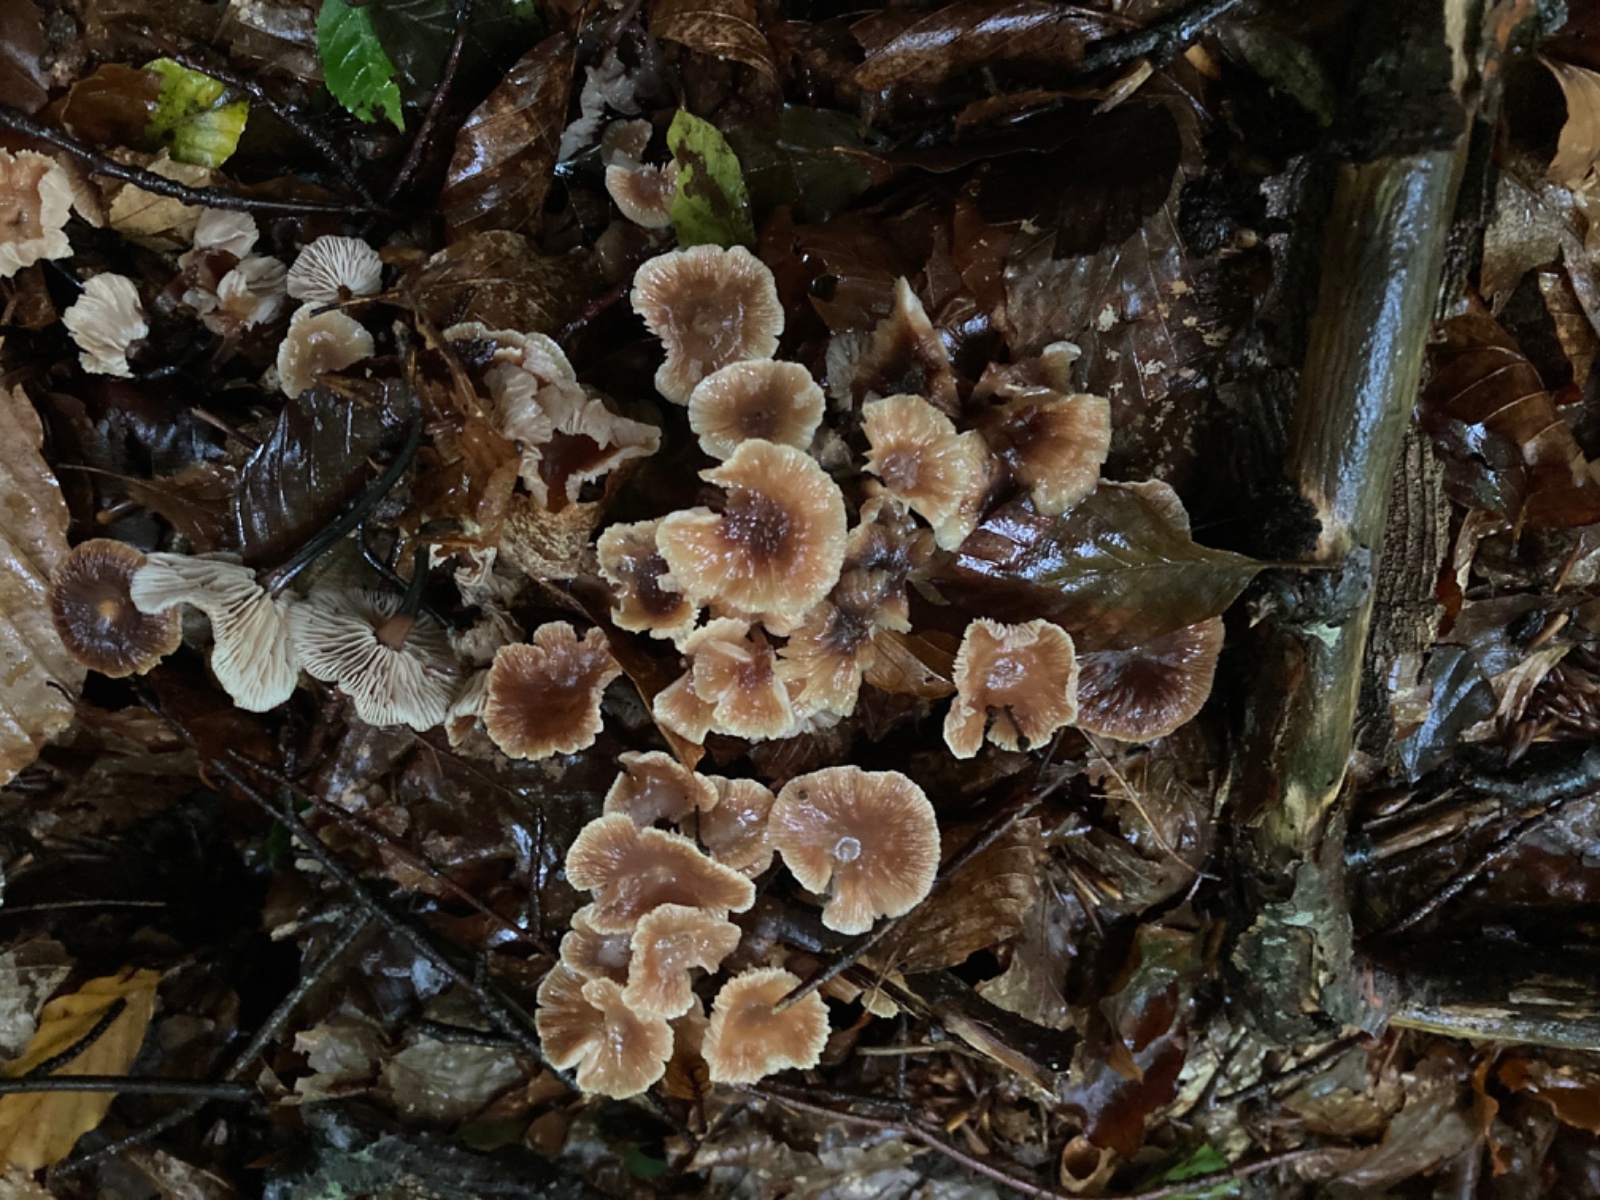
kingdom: Fungi
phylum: Basidiomycota
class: Agaricomycetes
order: Agaricales
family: Omphalotaceae
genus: Gymnopus
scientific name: Gymnopus brassicolens
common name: kål-fladhat
